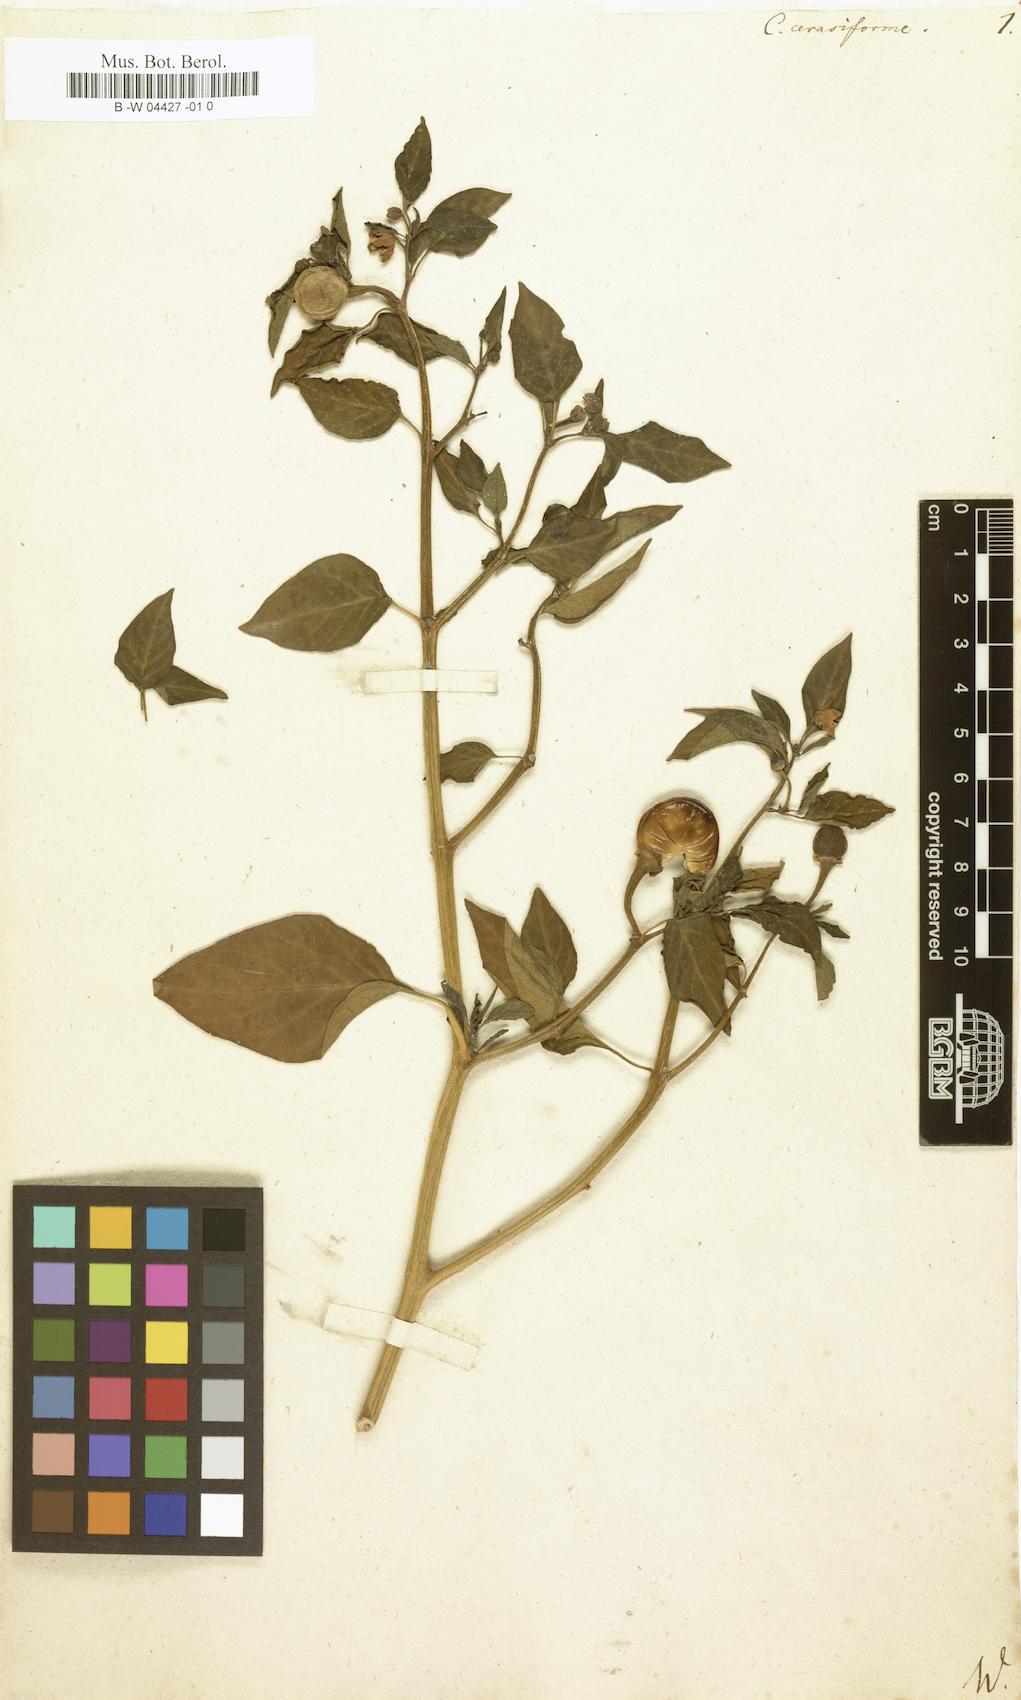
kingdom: Plantae
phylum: Tracheophyta
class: Magnoliopsida
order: Solanales
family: Solanaceae
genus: Capsicum
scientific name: Capsicum
